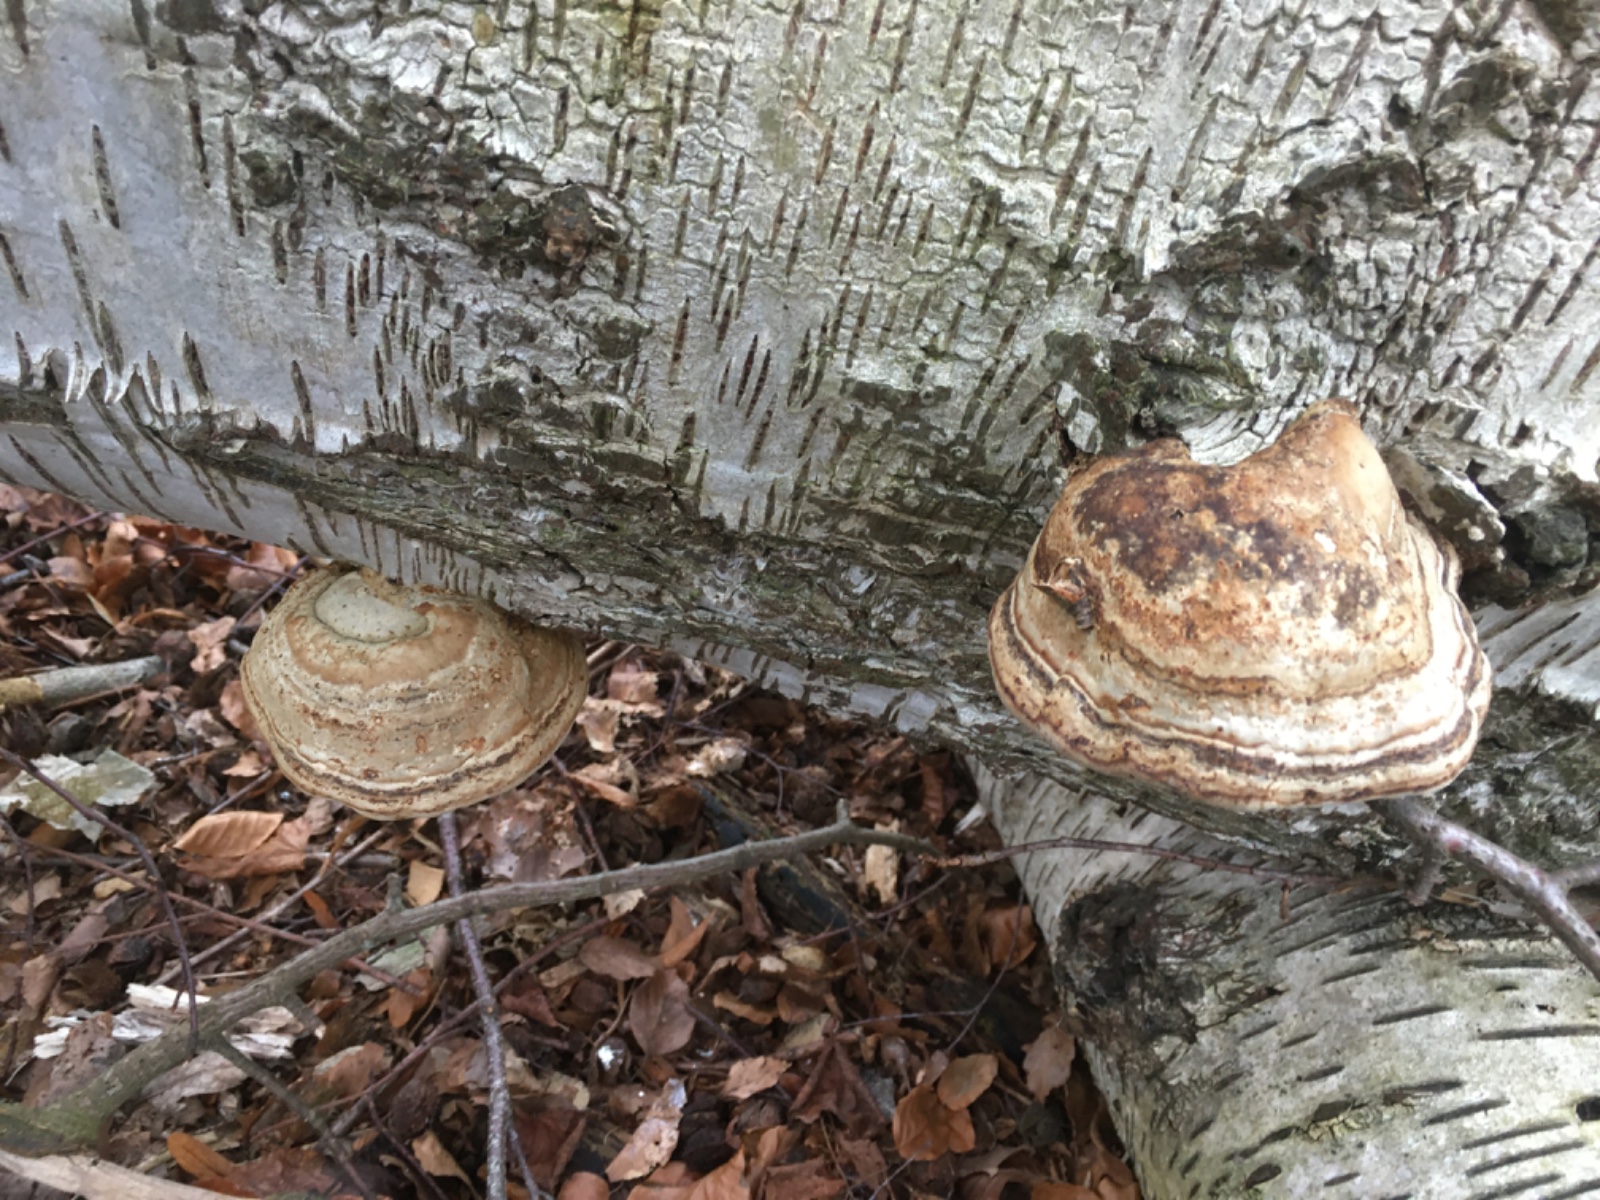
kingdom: Fungi
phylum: Basidiomycota
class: Agaricomycetes
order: Polyporales
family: Polyporaceae
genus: Fomes
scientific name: Fomes fomentarius
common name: tøndersvamp
